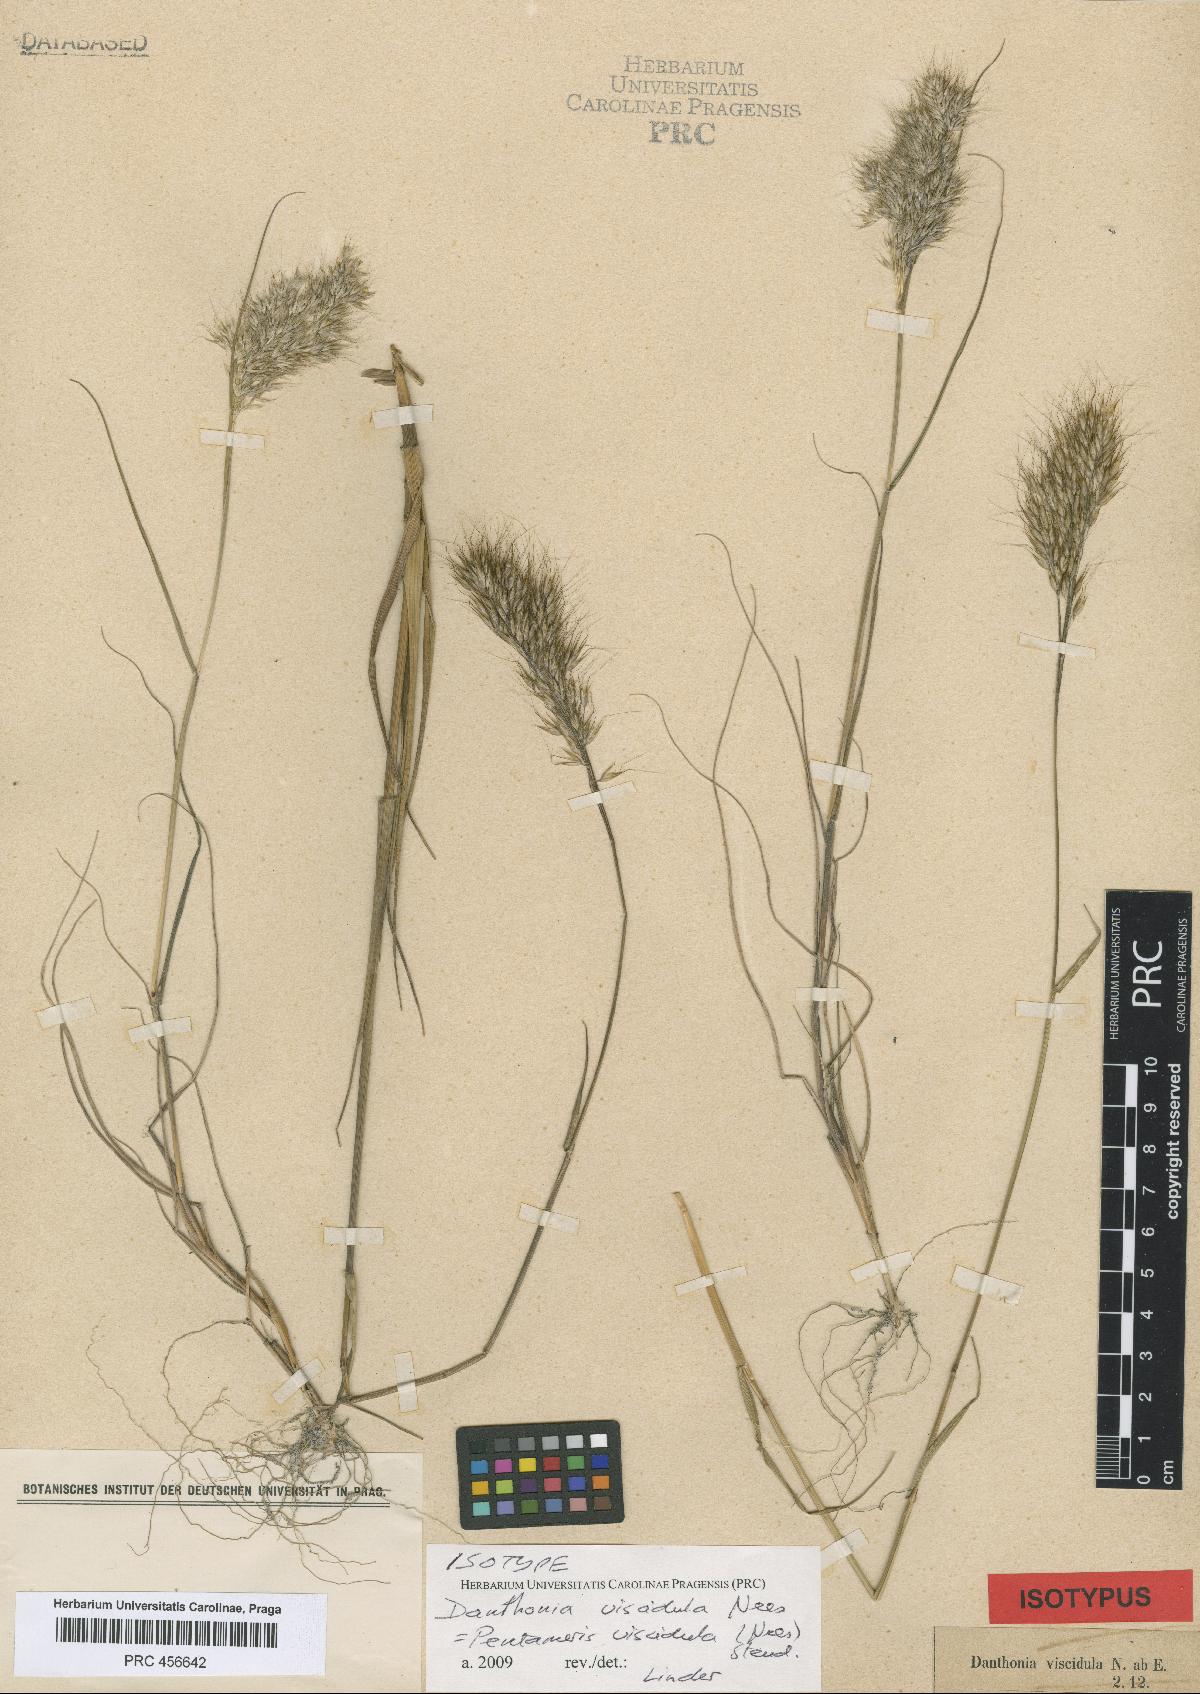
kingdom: Plantae
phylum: Tracheophyta
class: Liliopsida
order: Poales
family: Poaceae
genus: Pentameris
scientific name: Pentameris viscidula
